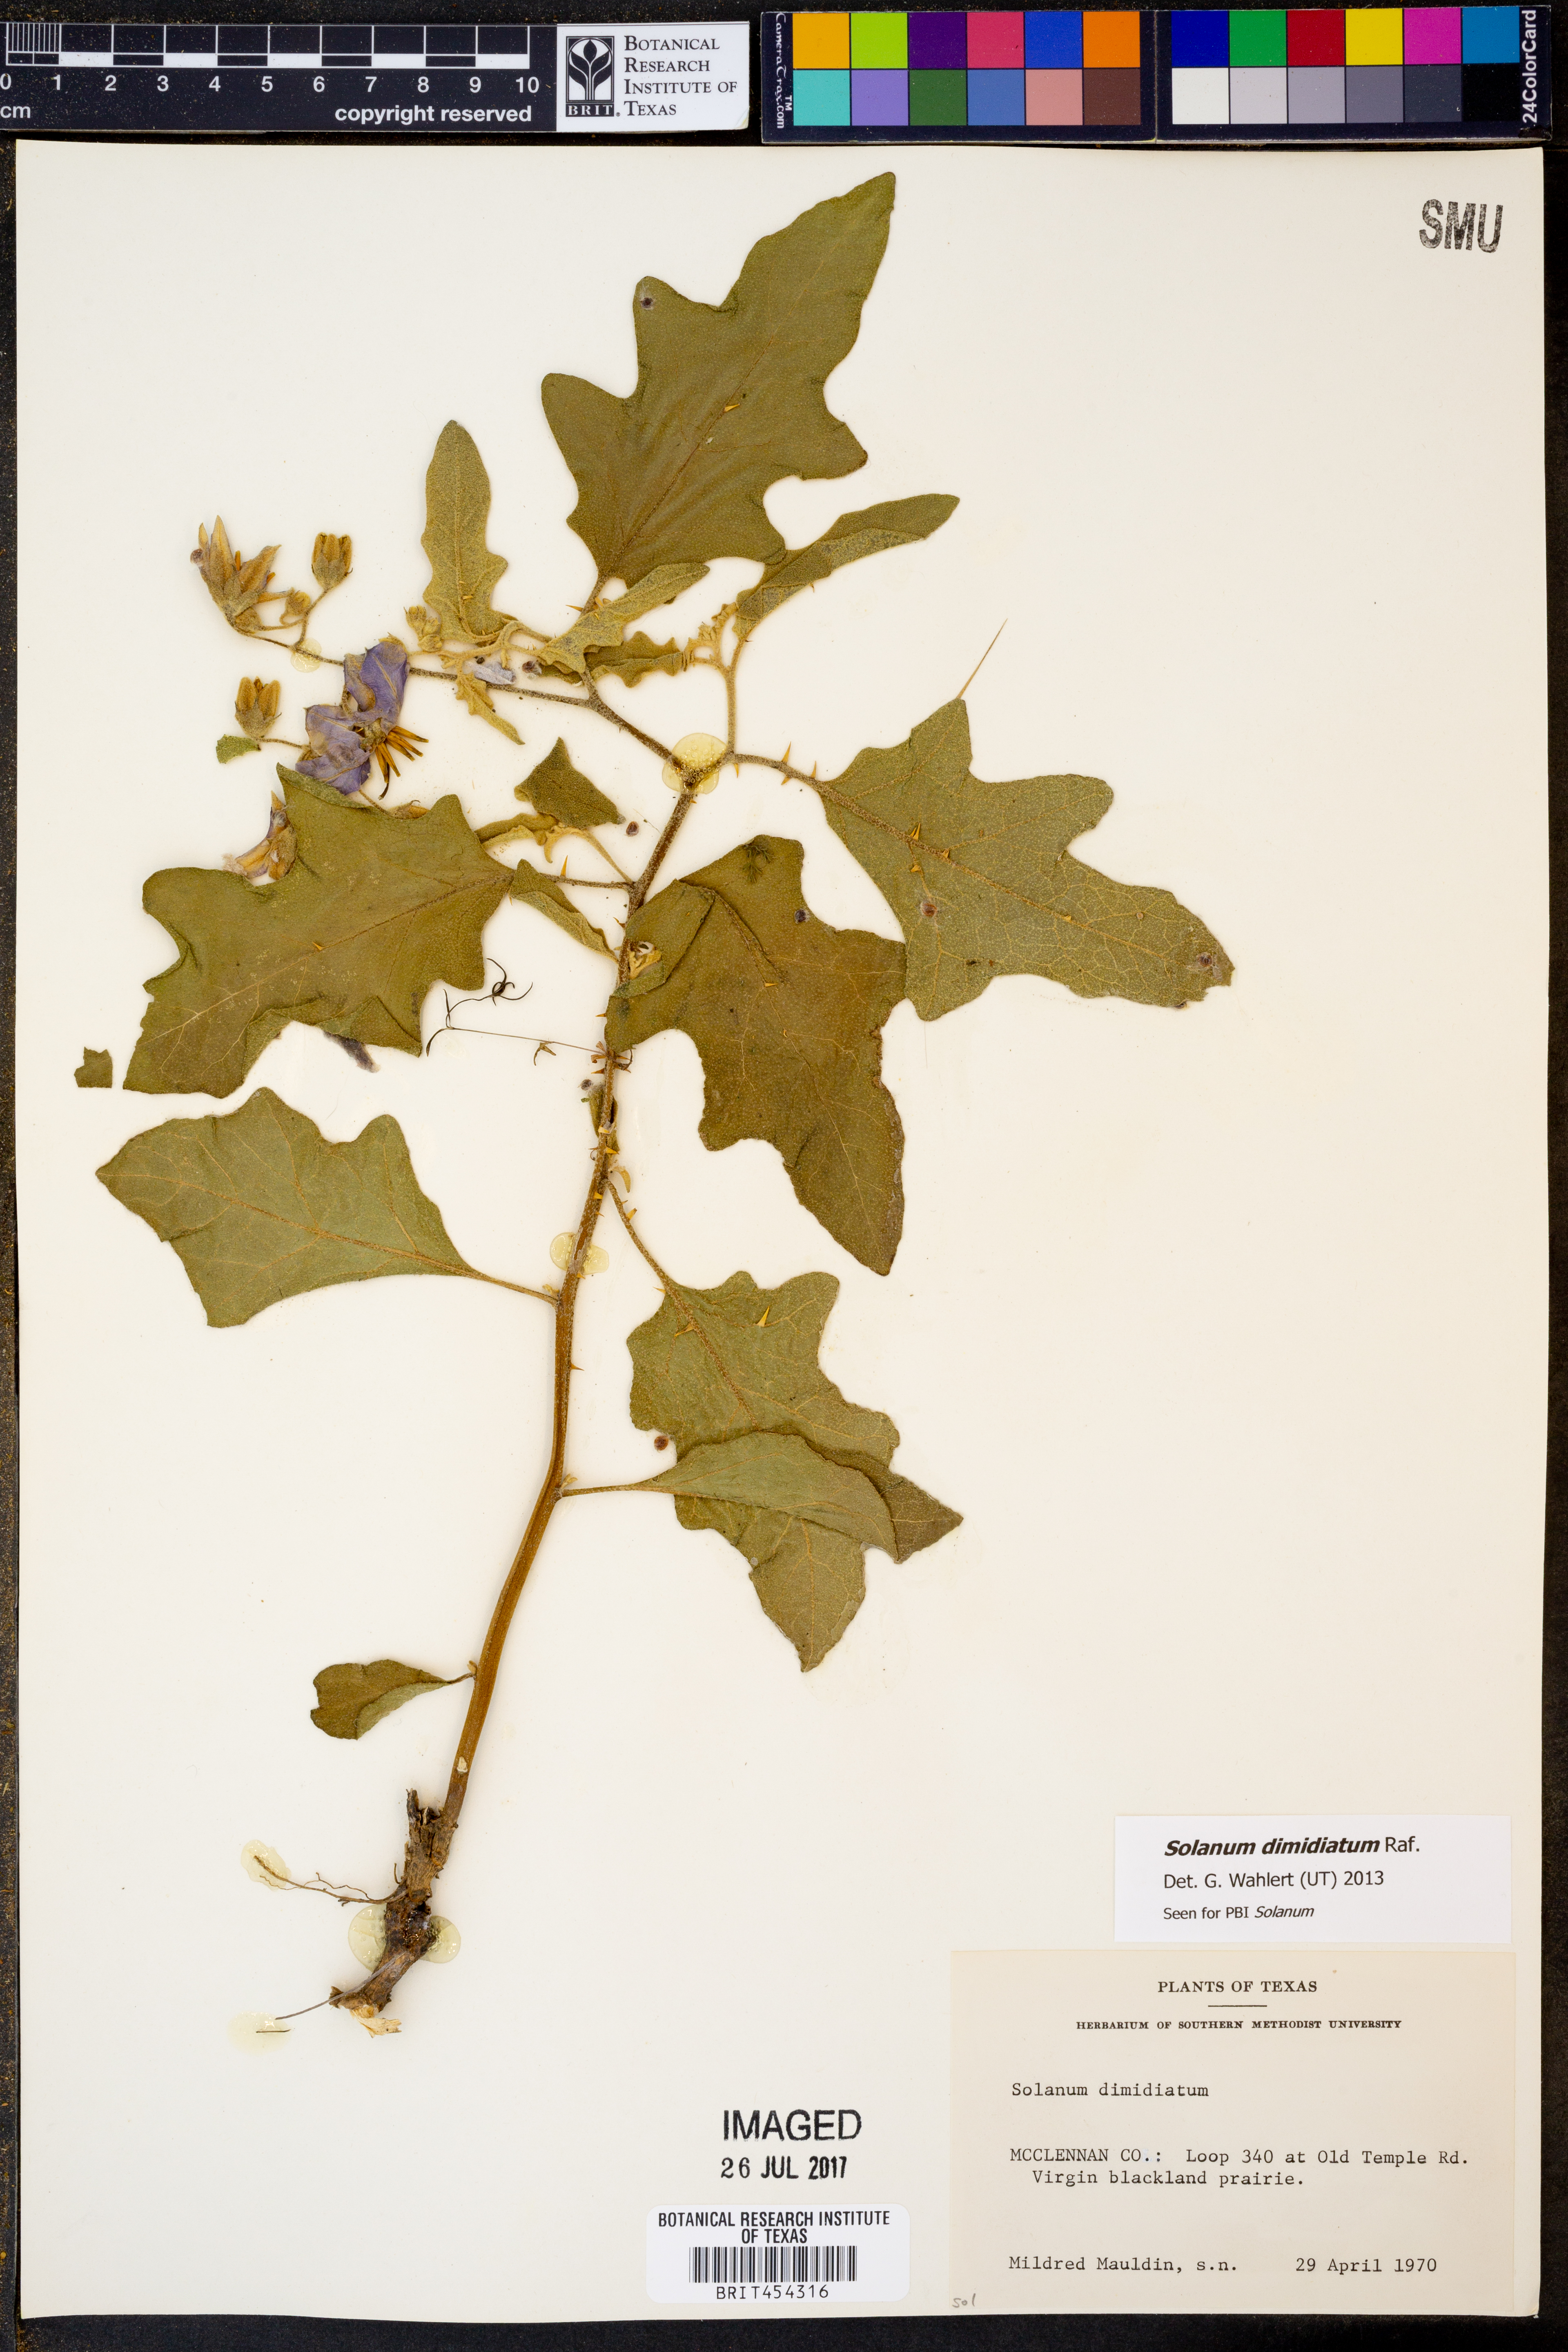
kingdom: Plantae
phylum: Tracheophyta
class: Magnoliopsida
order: Solanales
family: Solanaceae
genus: Solanum
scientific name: Solanum dimidiatum
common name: Carolina horse-nettle
